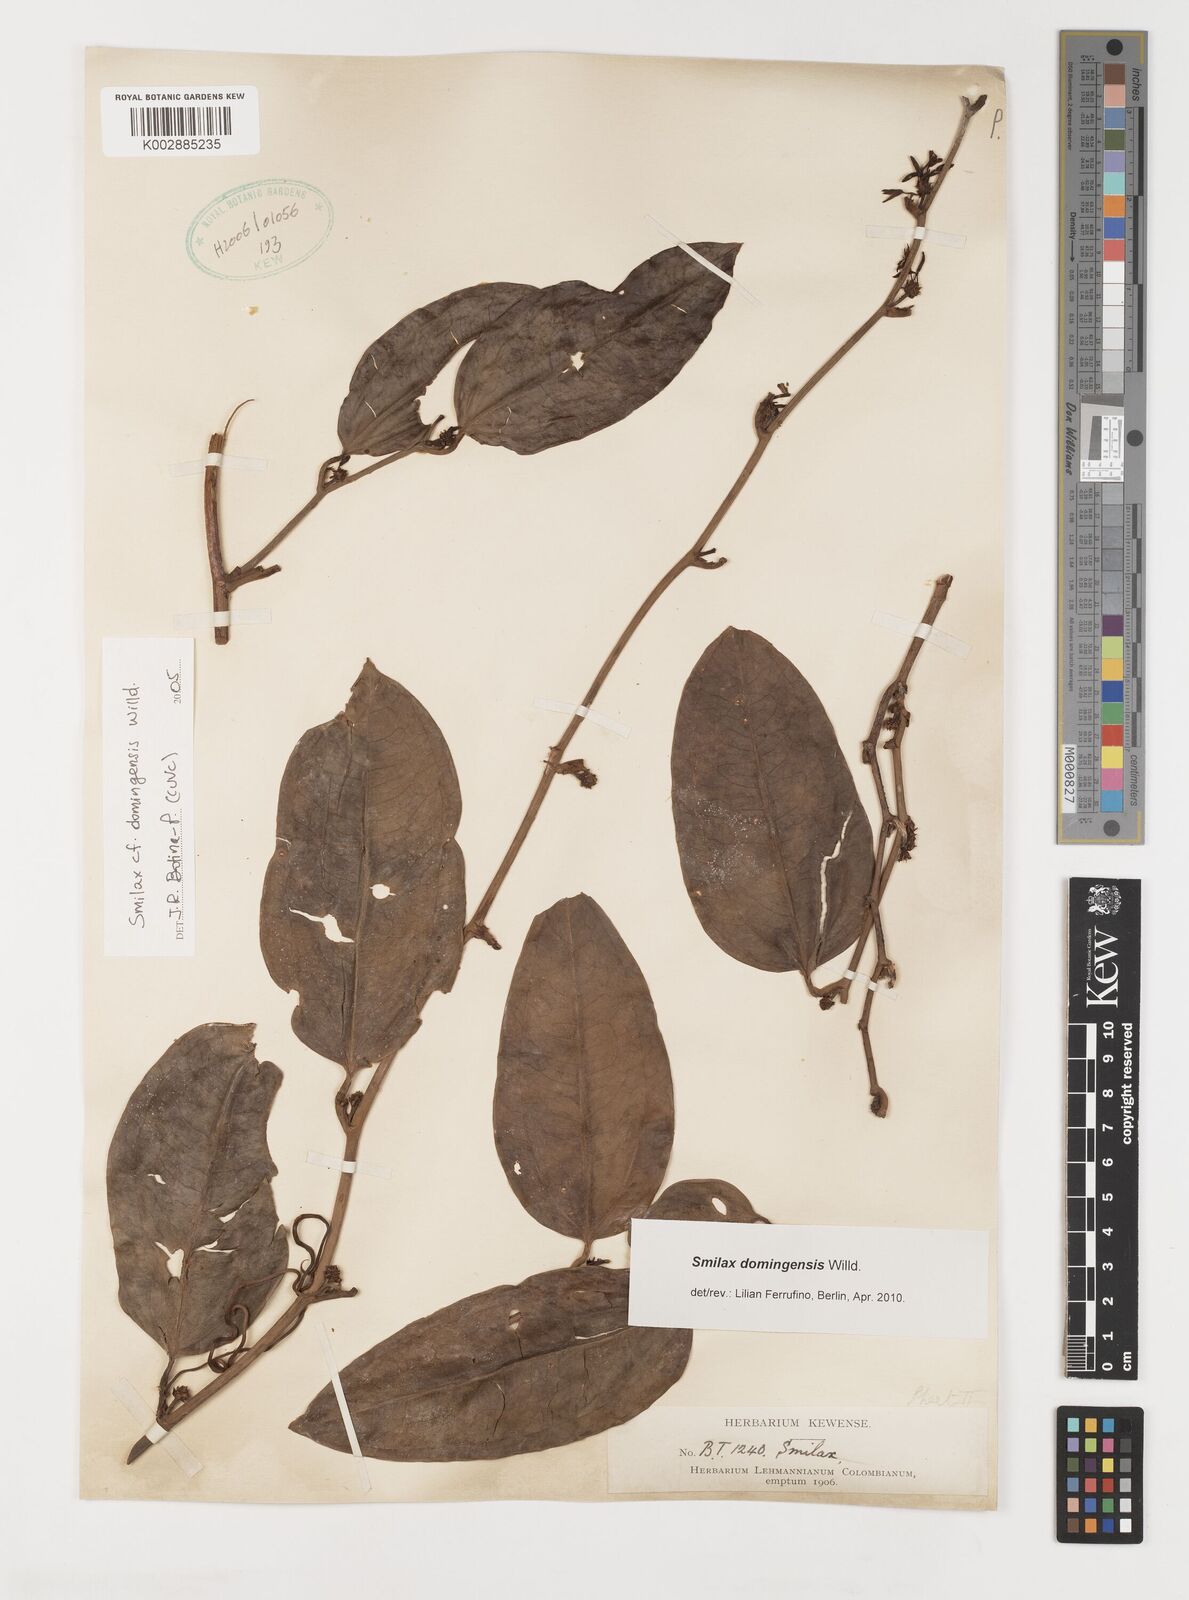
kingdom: Plantae
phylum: Tracheophyta
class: Liliopsida
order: Liliales
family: Smilacaceae
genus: Smilax
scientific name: Smilax domingensis
